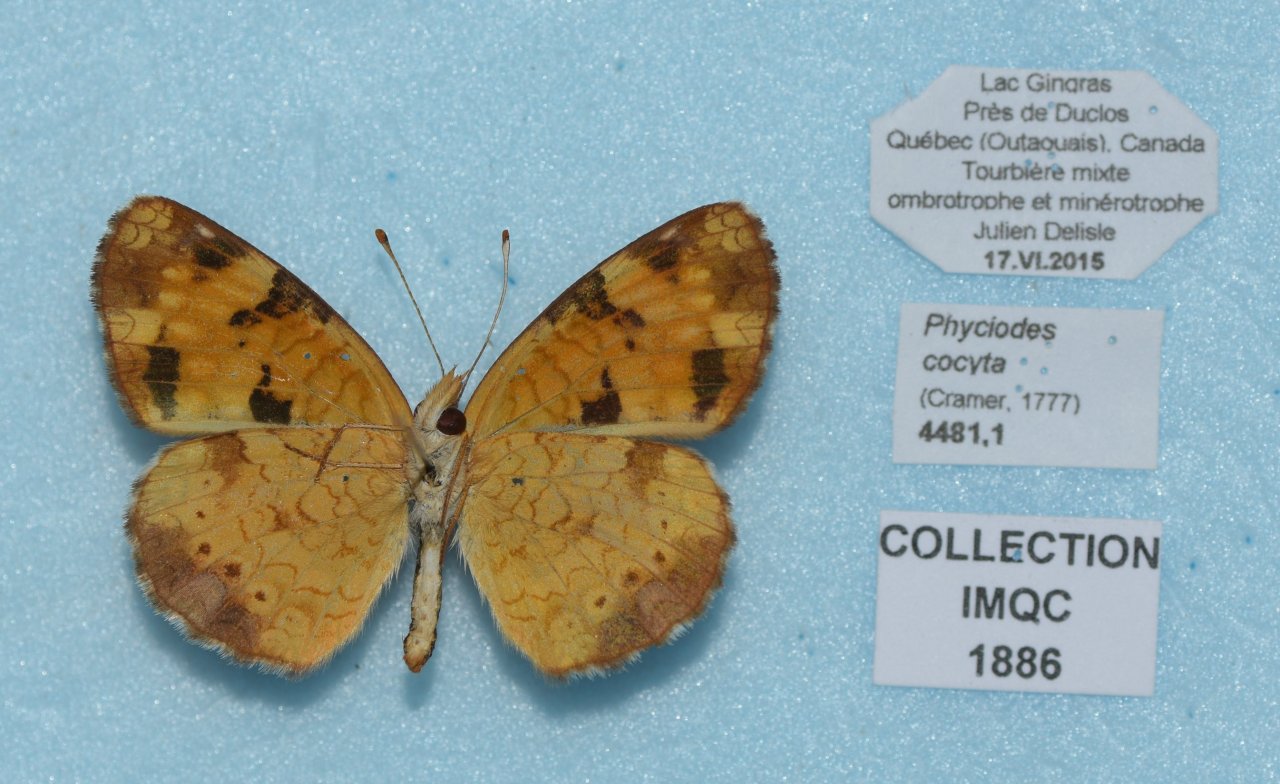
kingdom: Animalia
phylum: Arthropoda
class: Insecta
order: Lepidoptera
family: Nymphalidae
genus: Phyciodes
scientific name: Phyciodes tharos
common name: Northern Crescent
